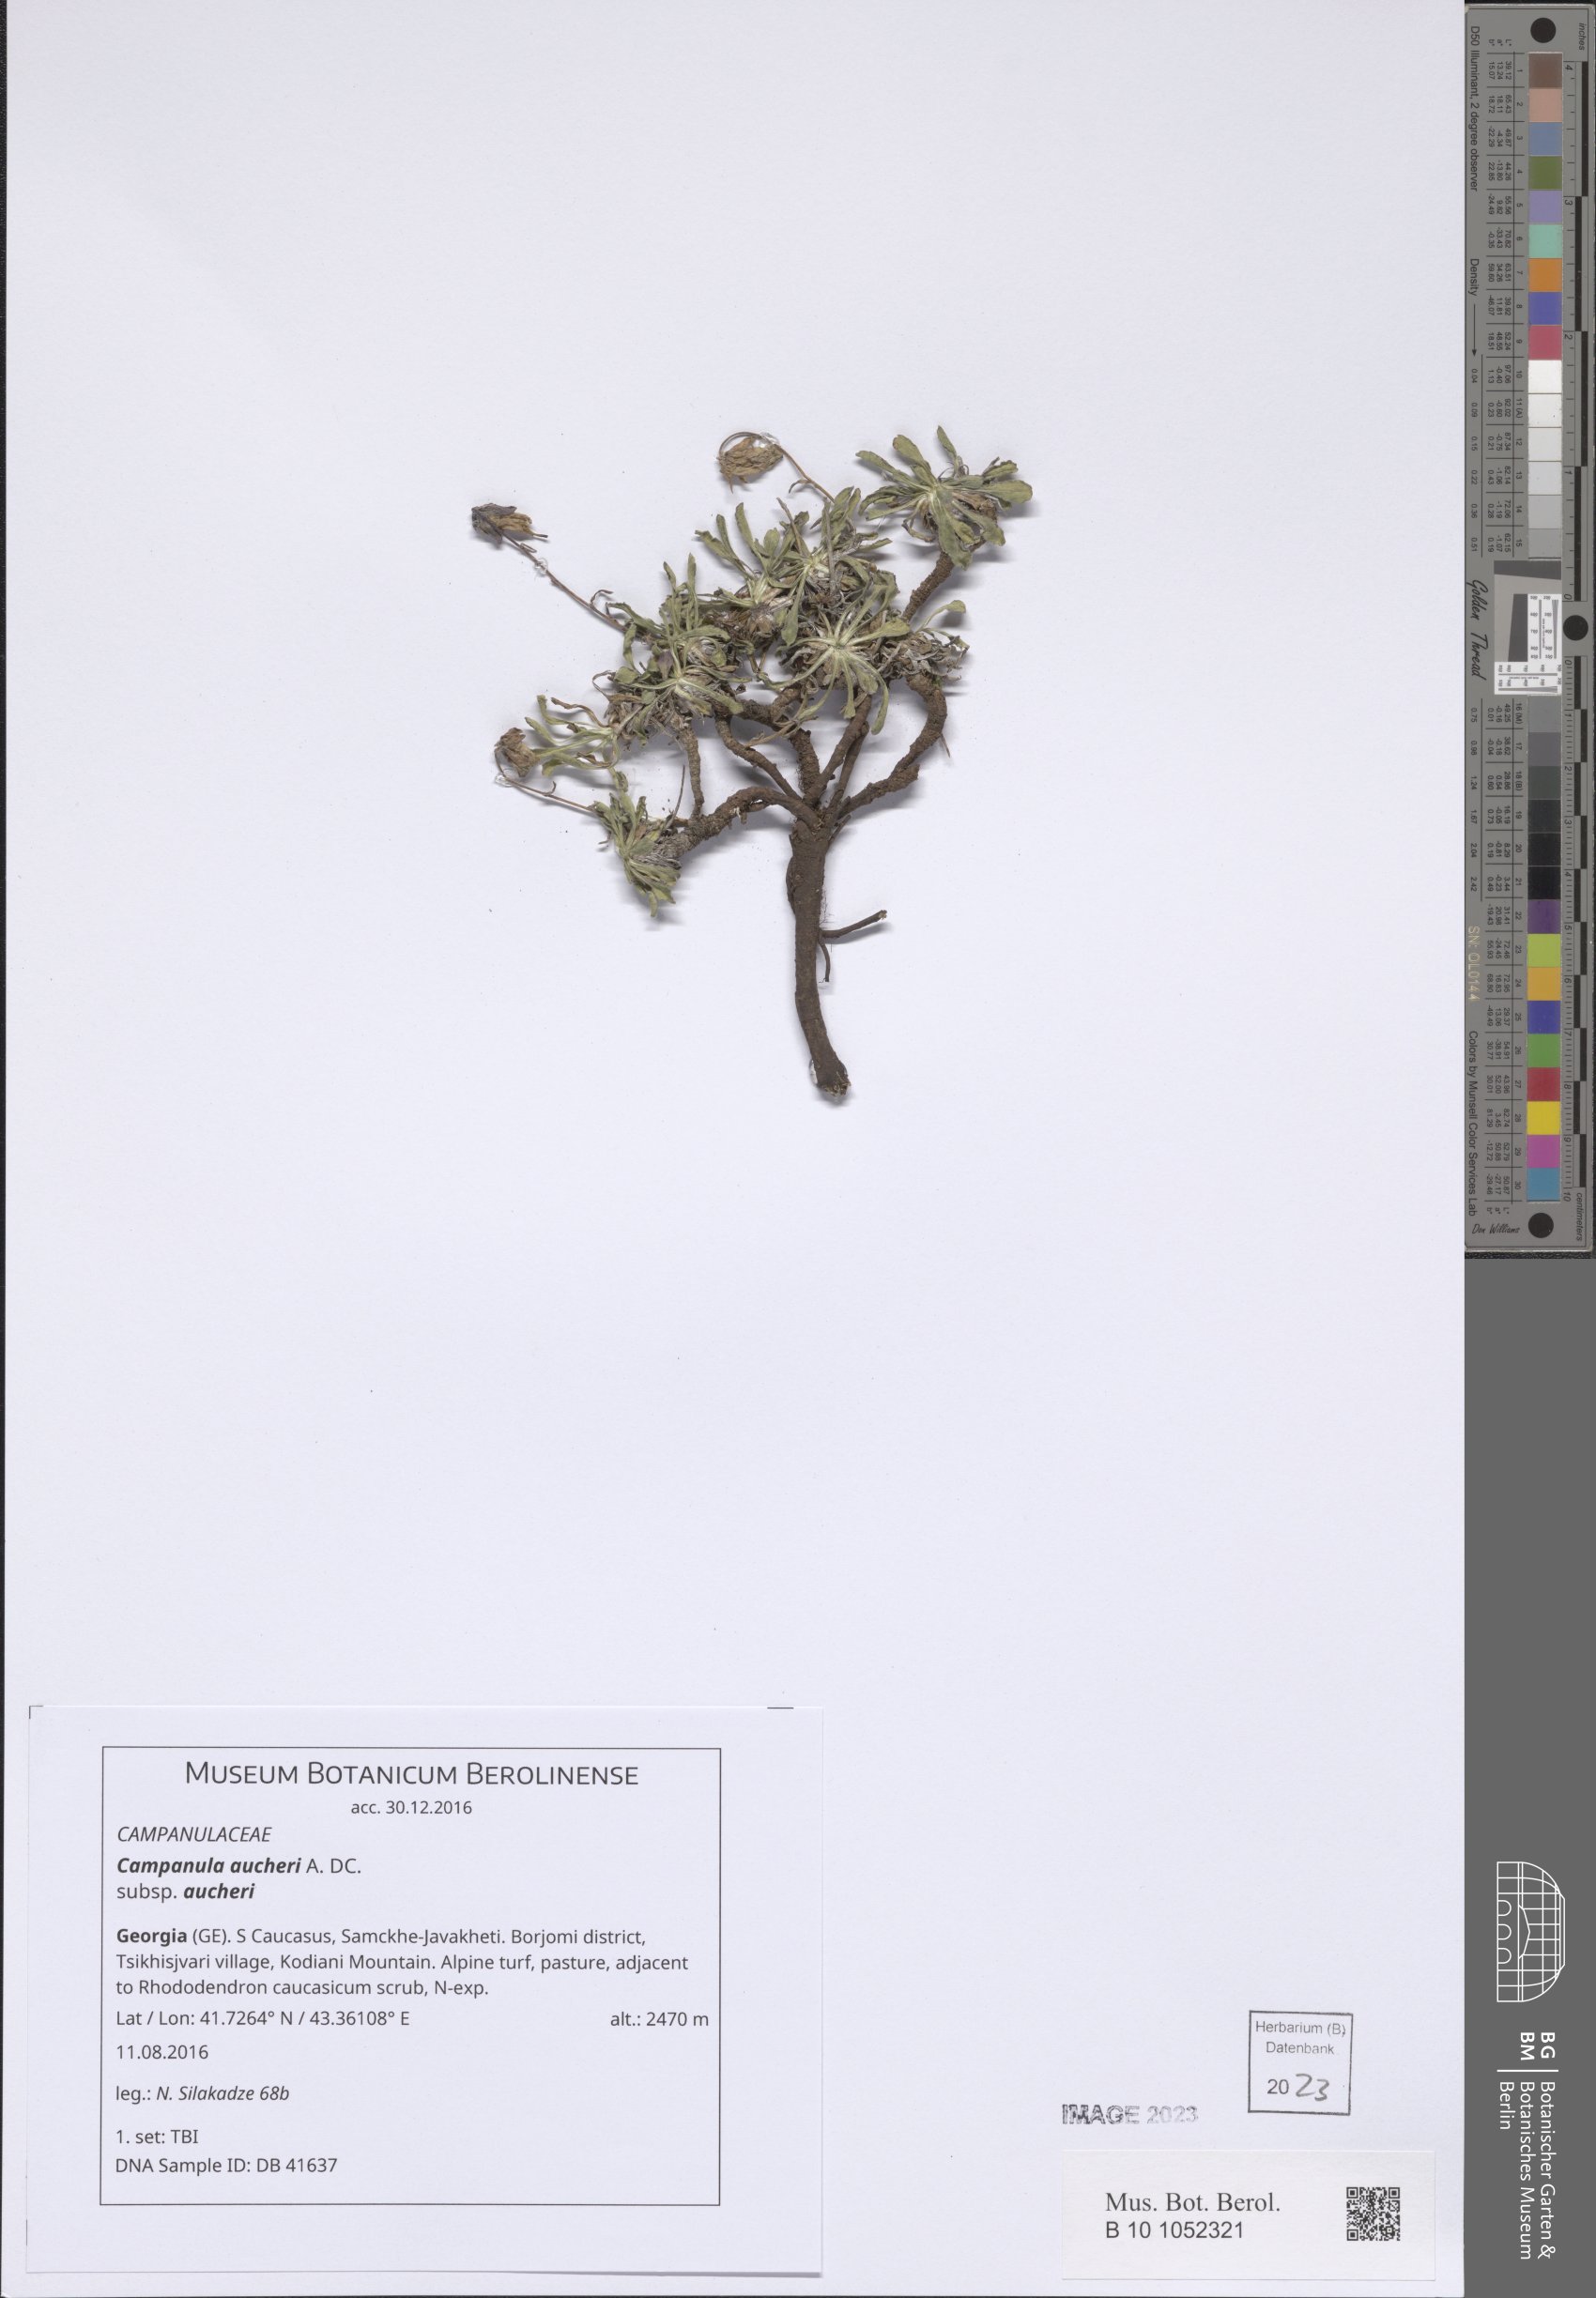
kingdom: Plantae
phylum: Tracheophyta
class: Magnoliopsida
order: Asterales
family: Campanulaceae
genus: Campanula
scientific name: Campanula saxifraga
